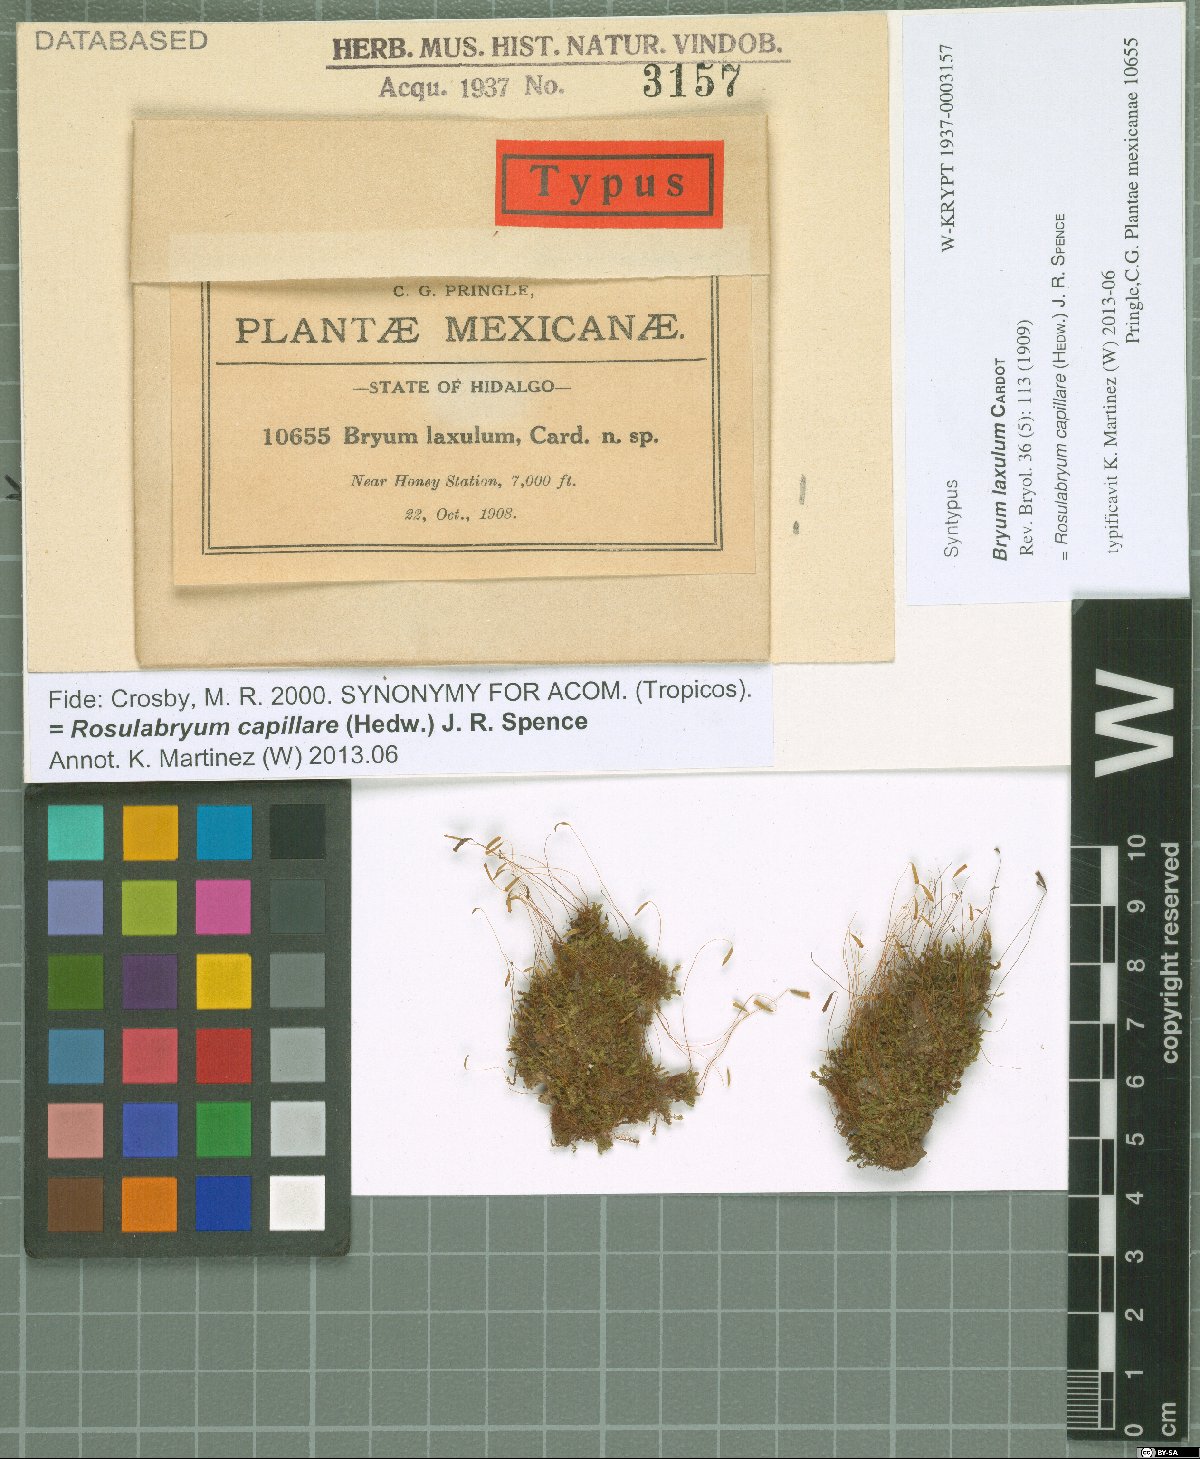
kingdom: Plantae
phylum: Bryophyta
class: Bryopsida
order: Bryales
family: Bryaceae
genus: Rosulabryum
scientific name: Rosulabryum capillare
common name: Capillary thread-moss
